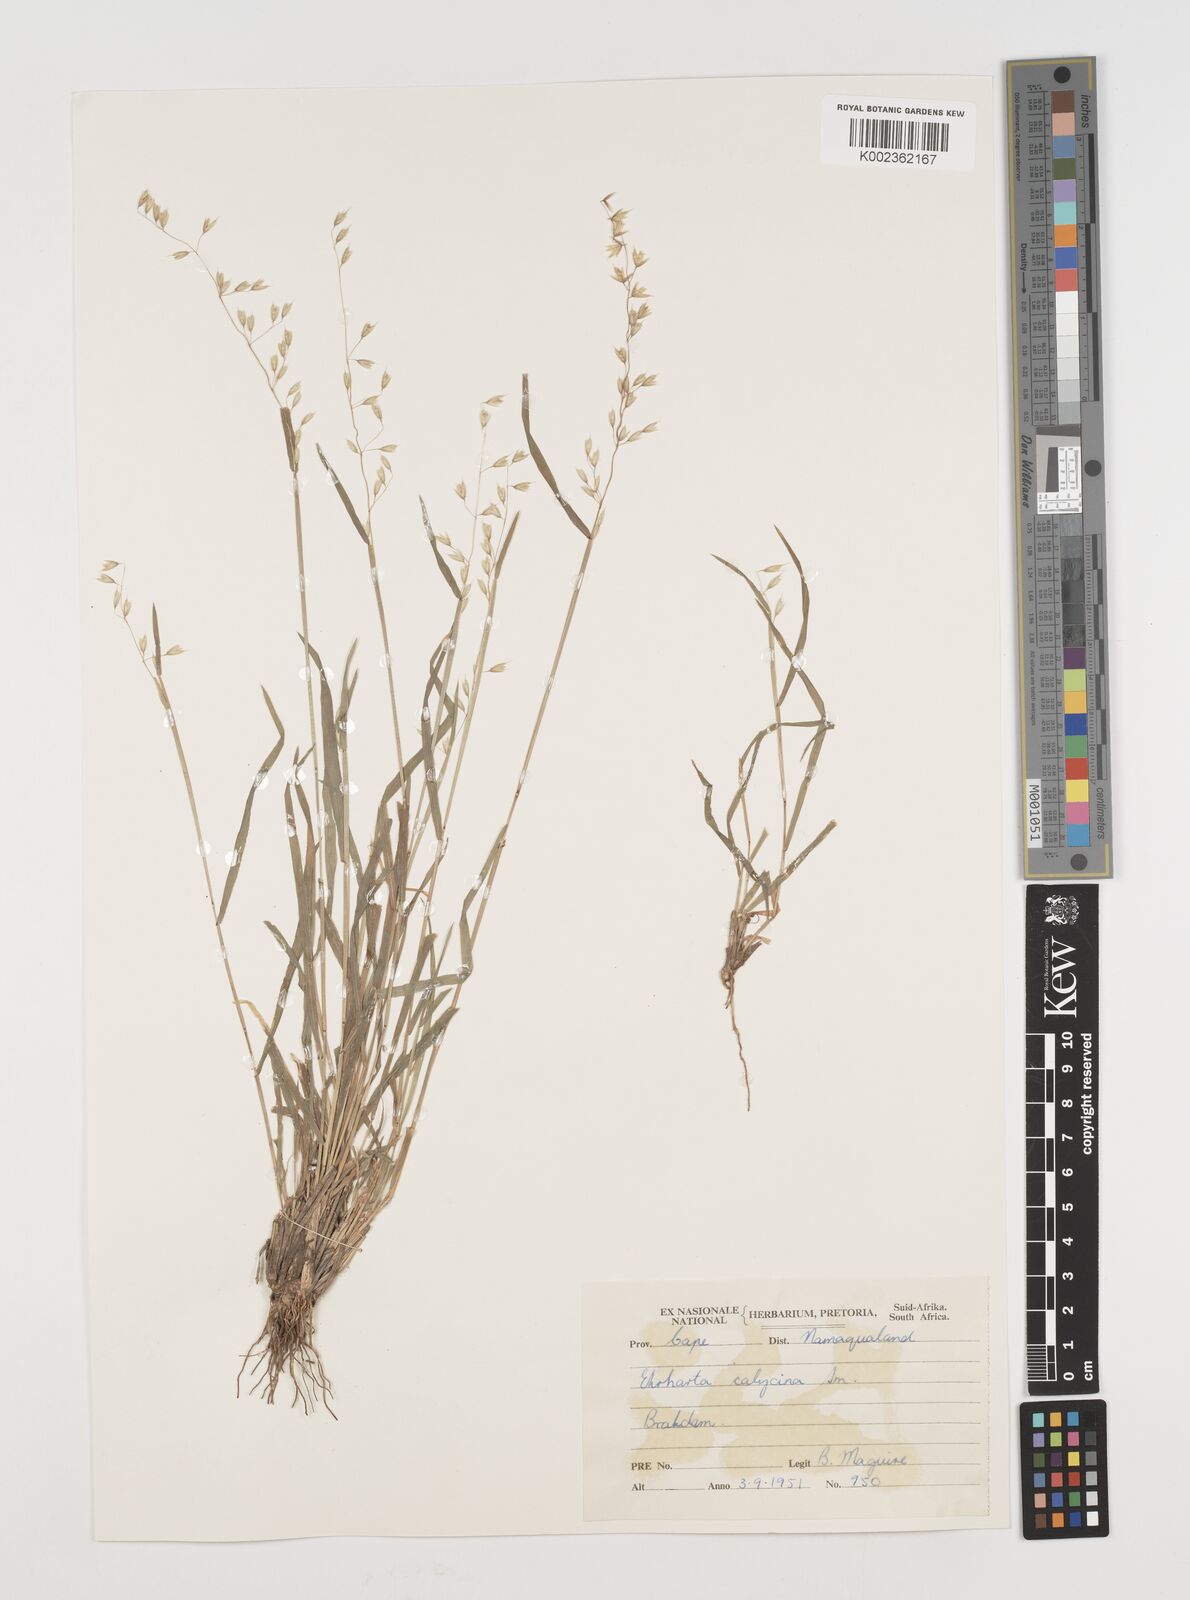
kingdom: Plantae
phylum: Tracheophyta
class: Liliopsida
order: Poales
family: Poaceae
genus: Ehrharta
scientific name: Ehrharta
